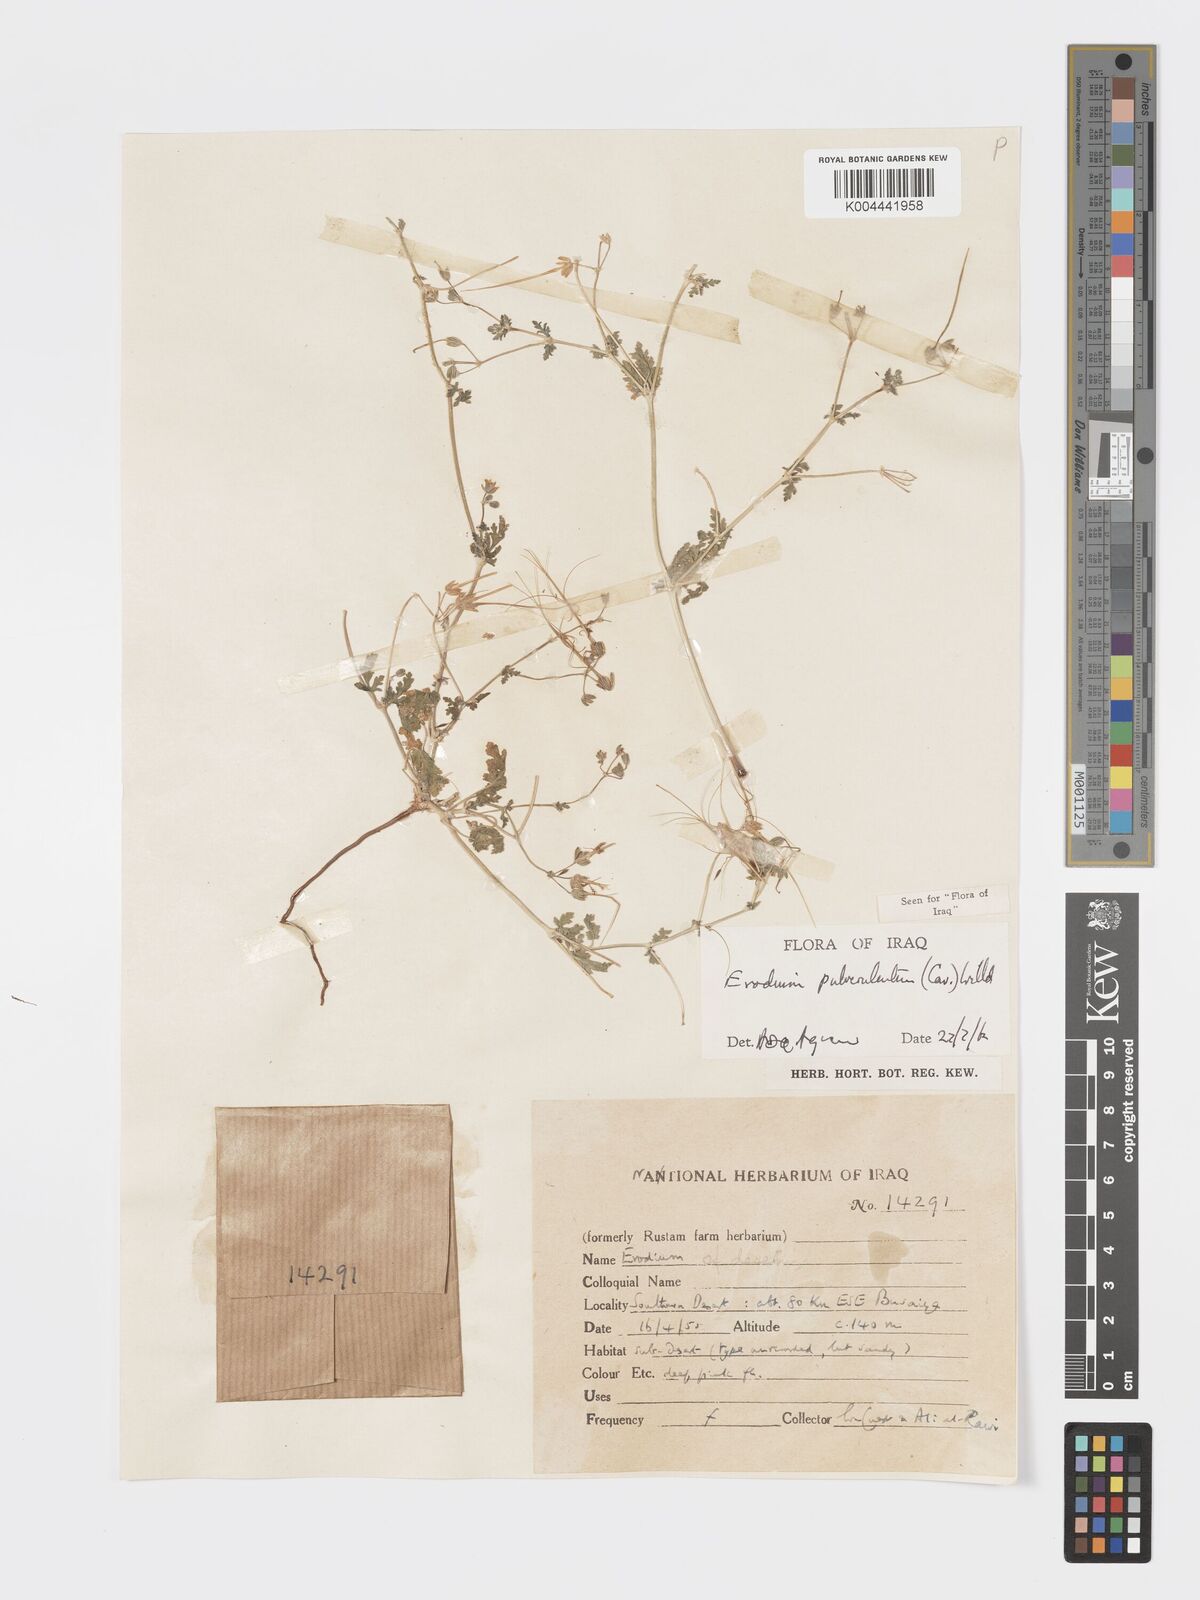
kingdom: Plantae
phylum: Tracheophyta
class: Magnoliopsida
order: Geraniales
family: Geraniaceae
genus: Erodium
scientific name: Erodium laciniatum
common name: Cutleaf stork's bill
